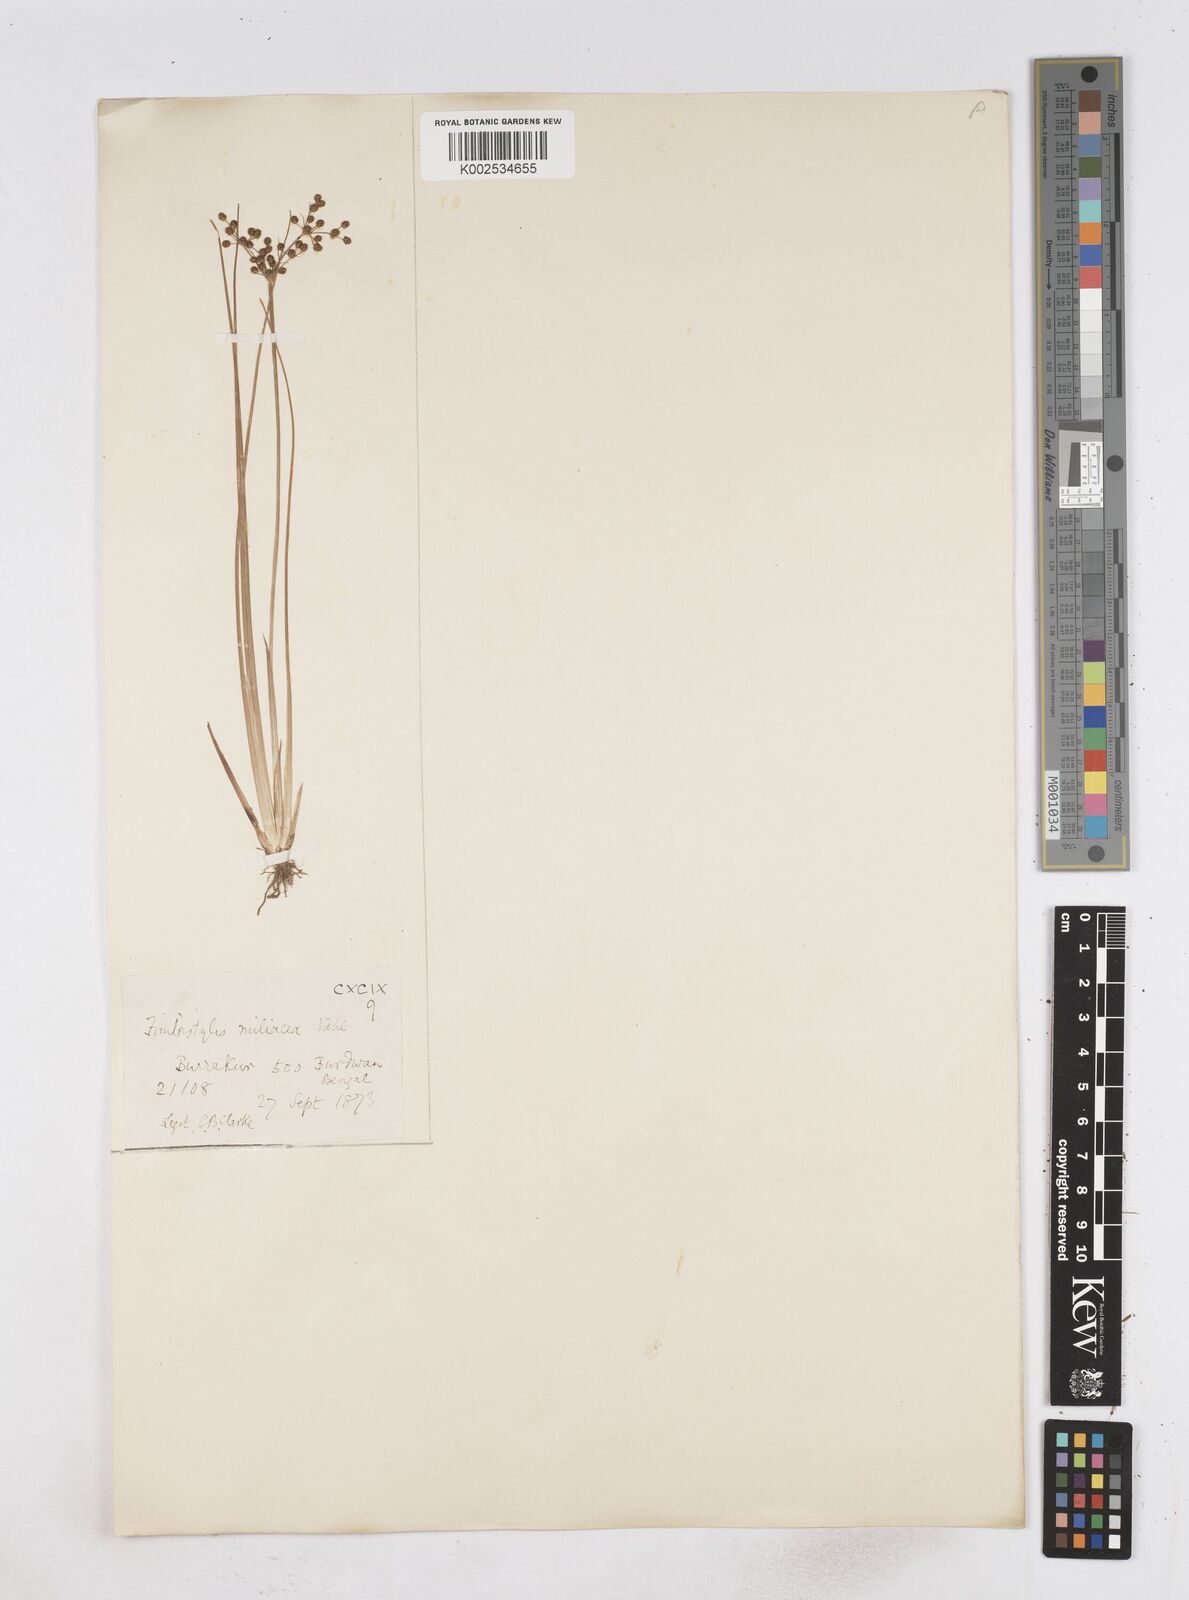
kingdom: Plantae
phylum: Tracheophyta
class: Liliopsida
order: Poales
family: Cyperaceae
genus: Fimbristylis
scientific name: Fimbristylis littoralis
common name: Fimbry
